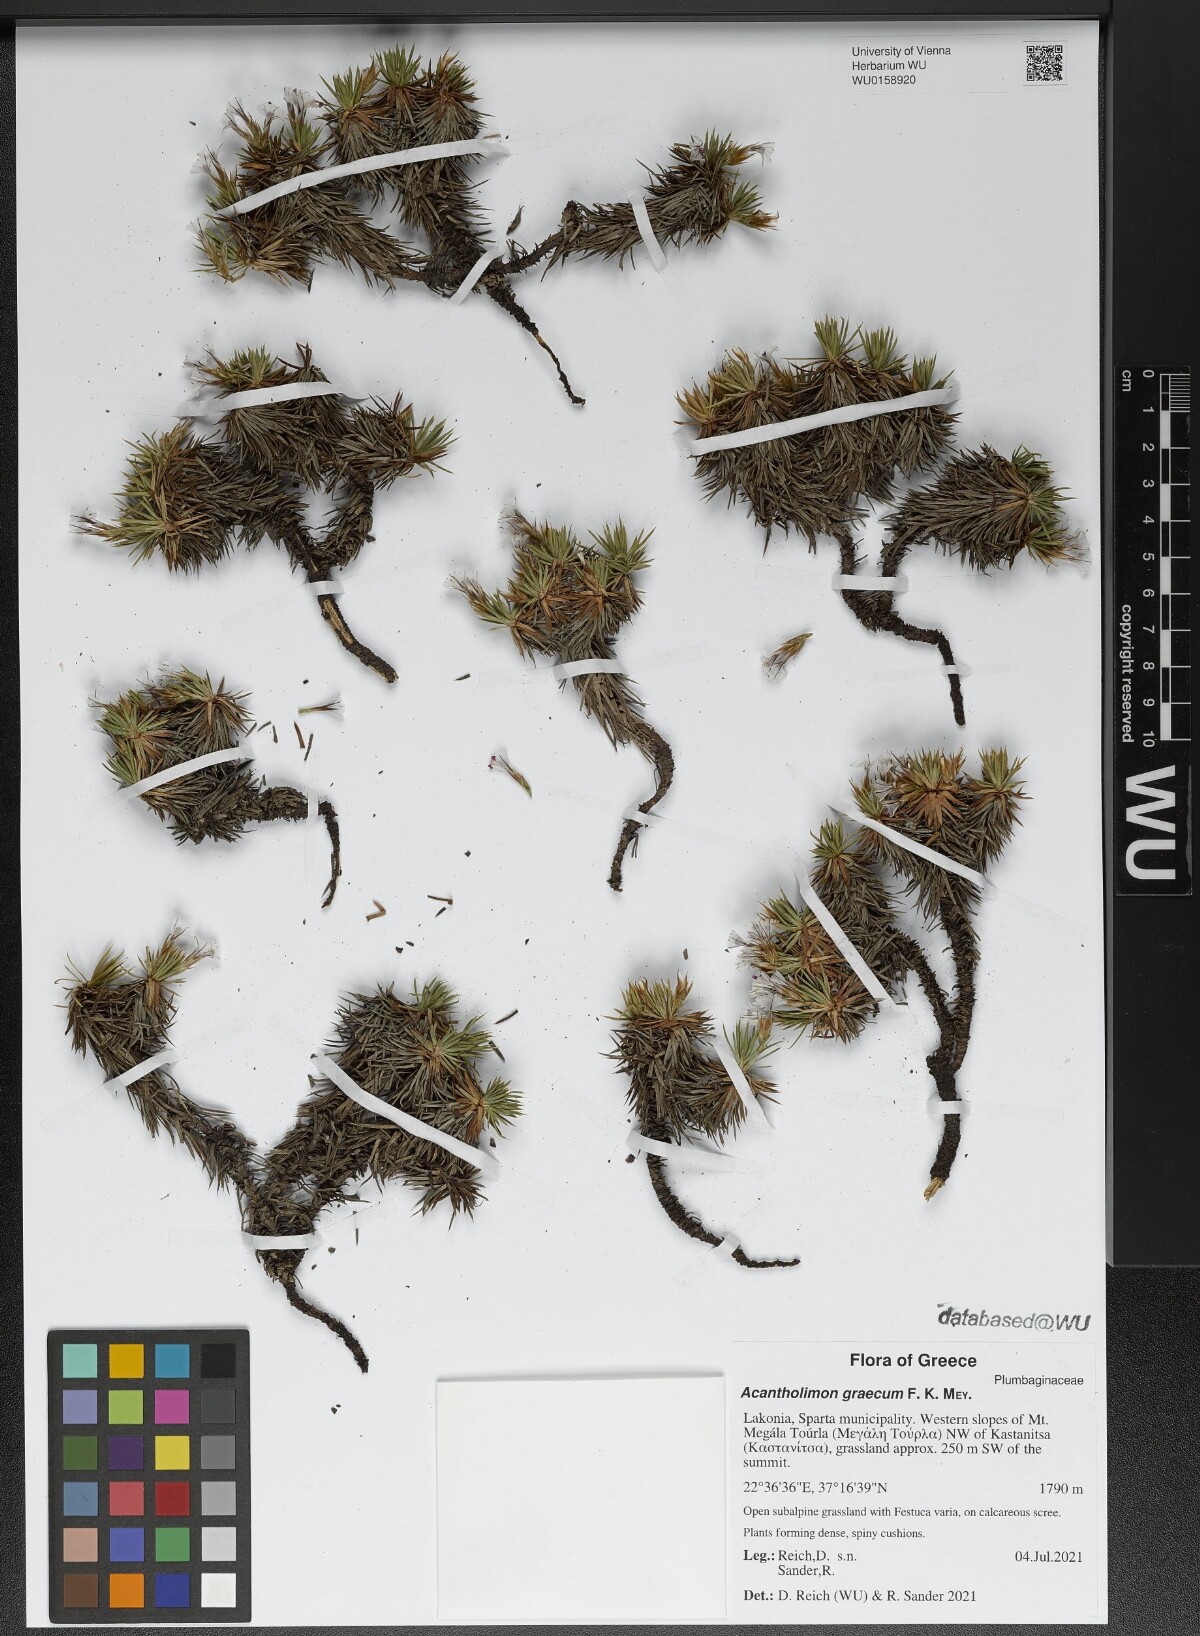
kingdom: Plantae
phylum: Tracheophyta
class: Magnoliopsida
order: Caryophyllales
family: Plumbaginaceae
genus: Acantholimon
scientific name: Acantholimon graecum
